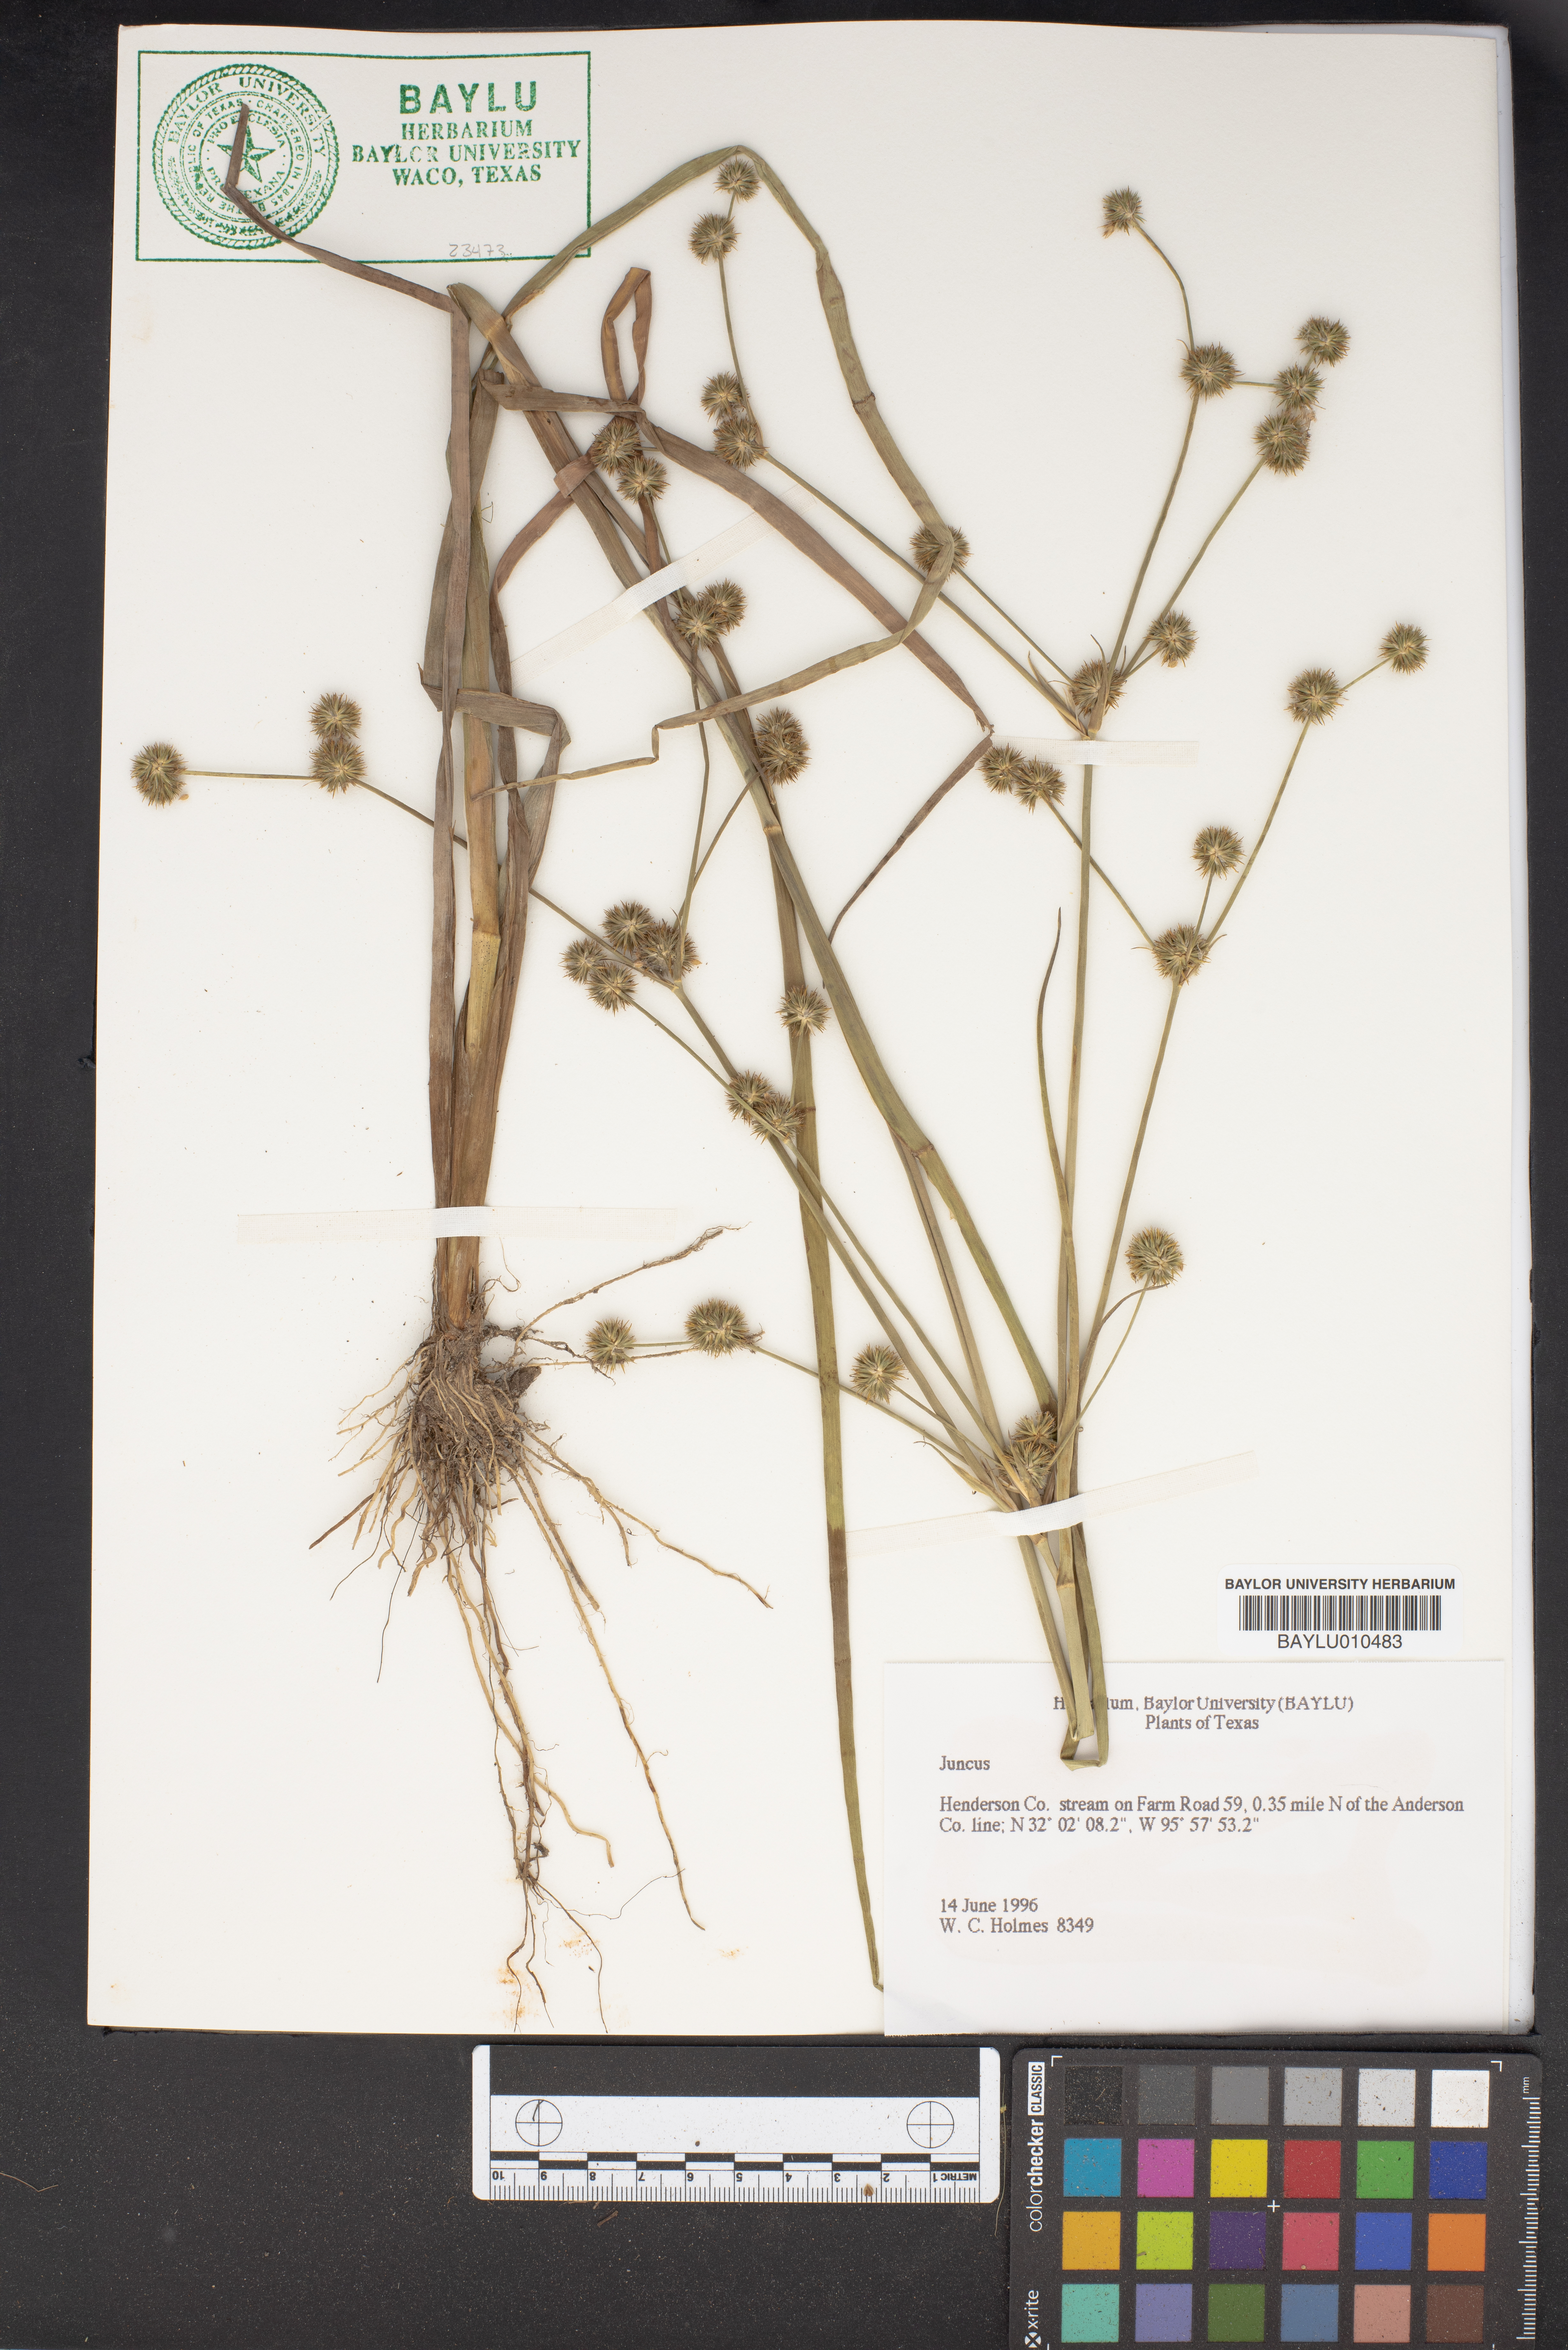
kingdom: Plantae
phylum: Tracheophyta
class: Liliopsida
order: Poales
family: Juncaceae
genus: Juncus
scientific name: Juncus
